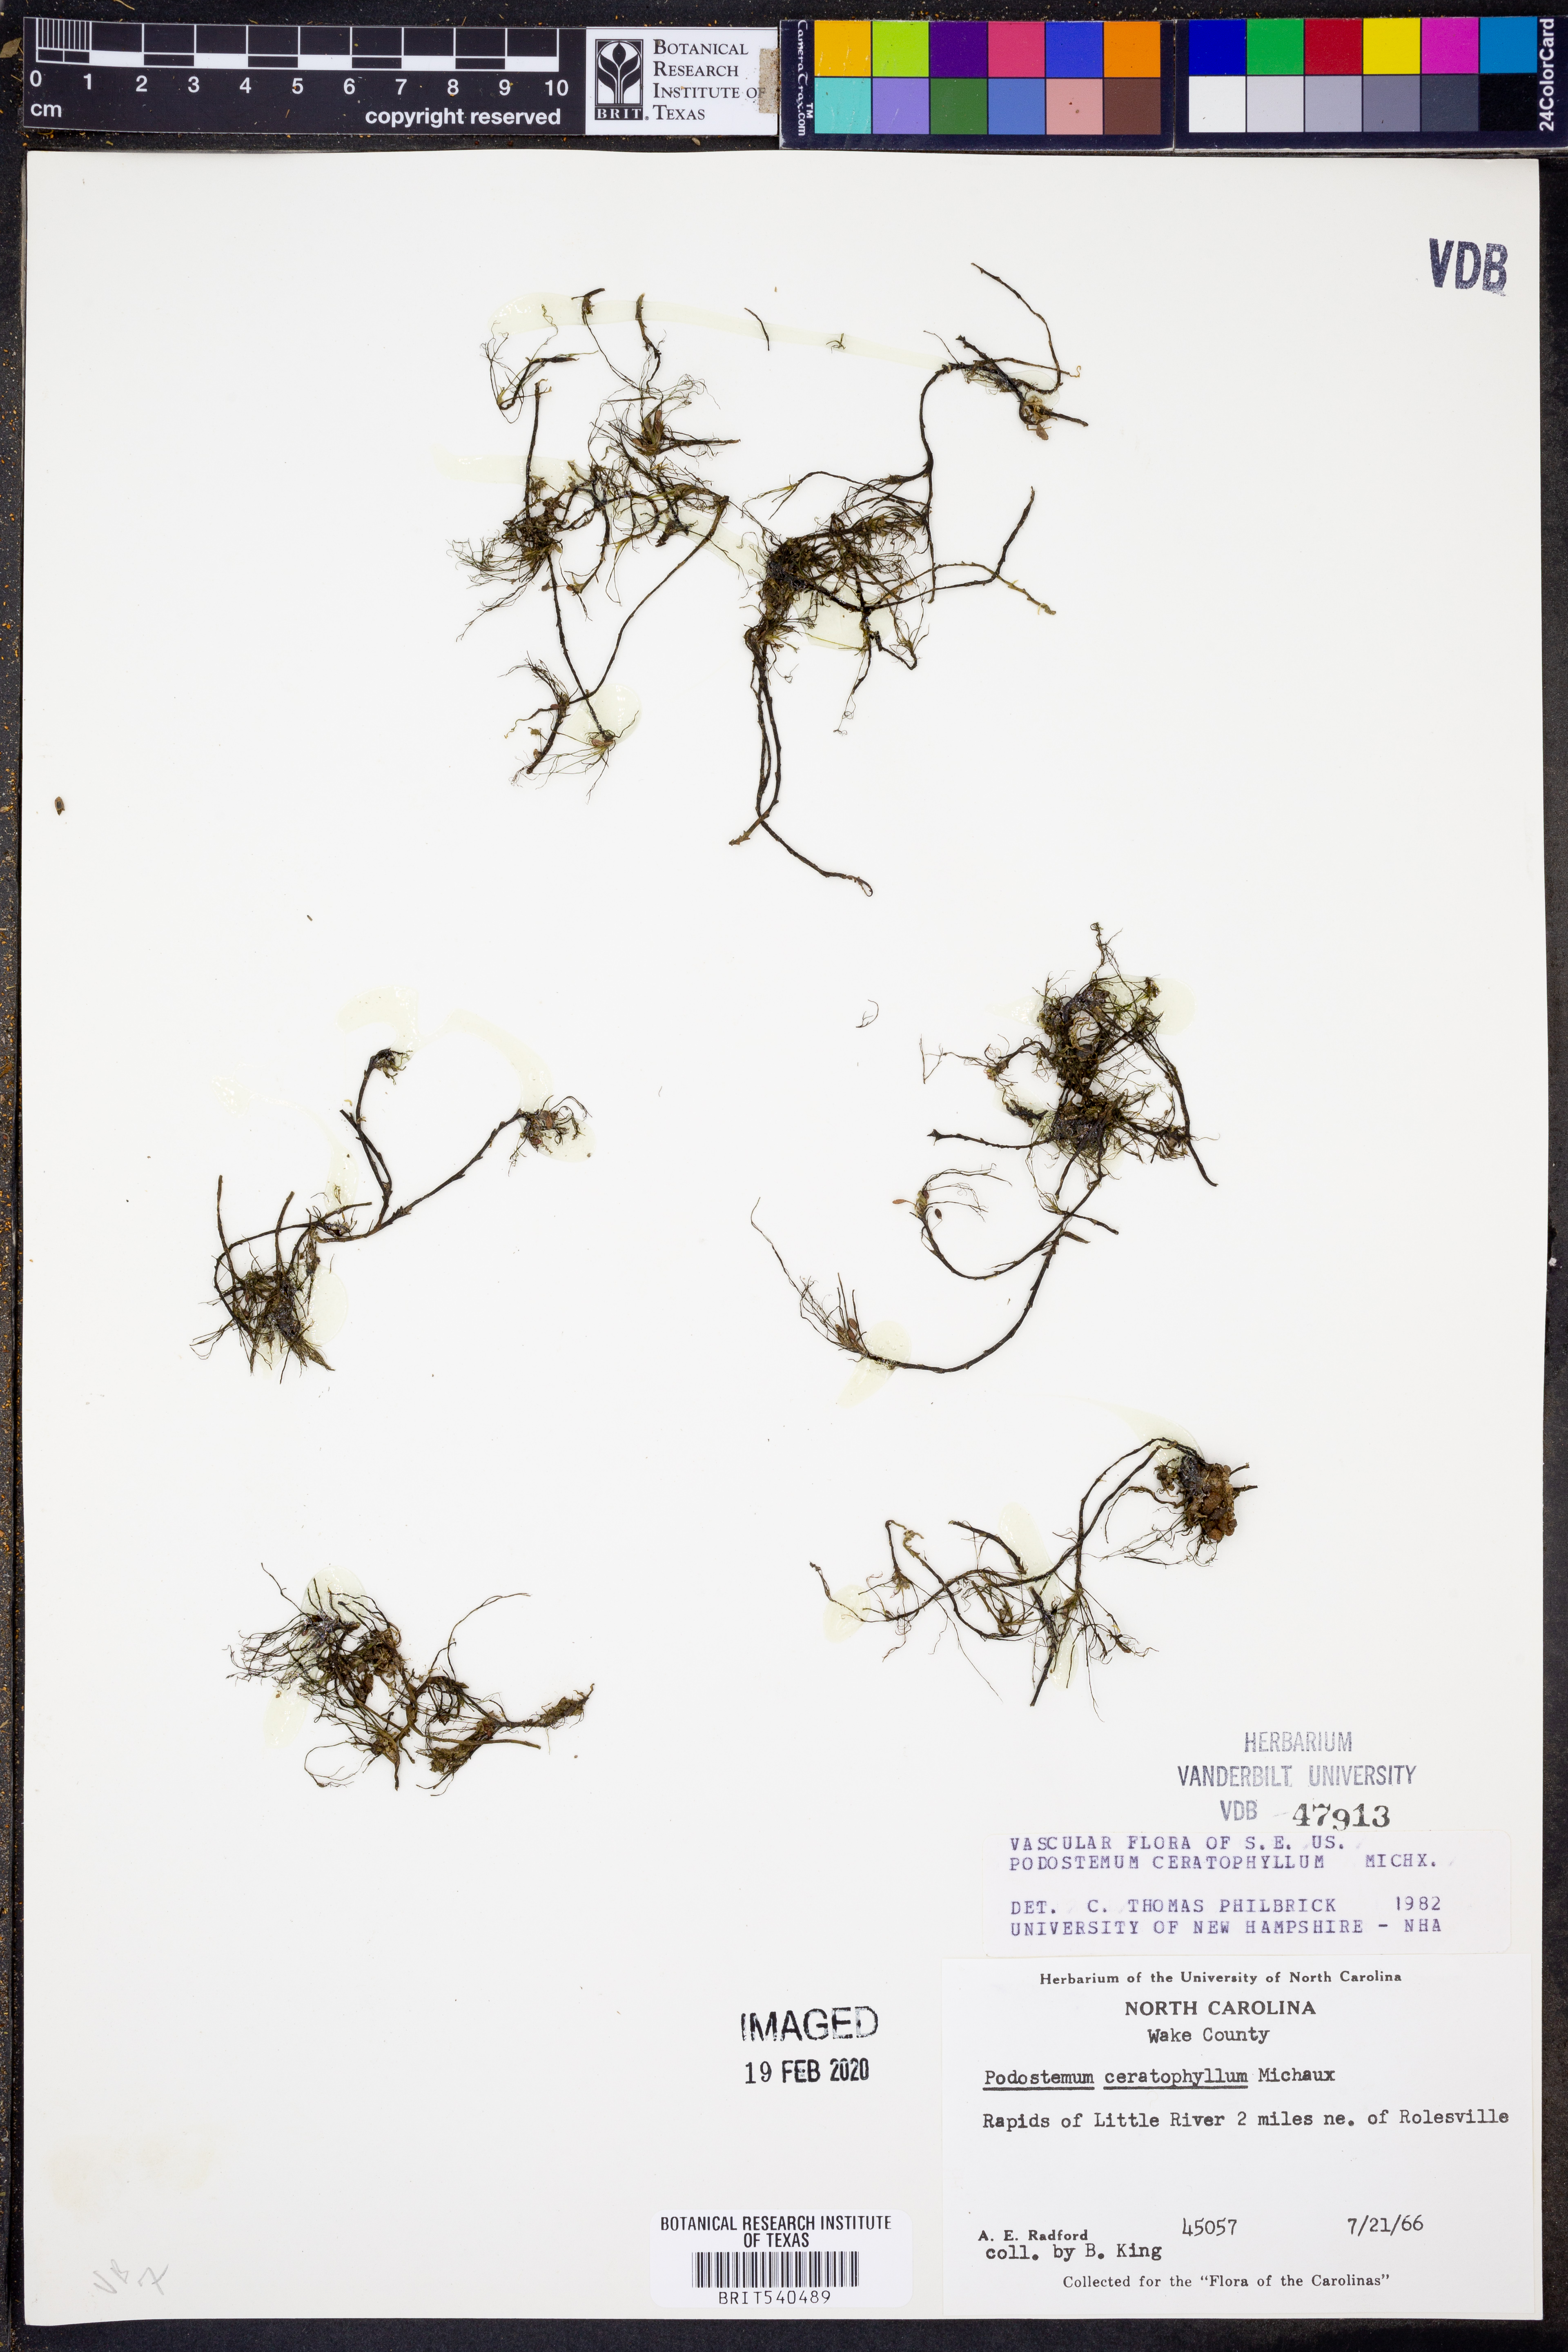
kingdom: Plantae
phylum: Tracheophyta
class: Magnoliopsida
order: Malpighiales
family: Podostemaceae
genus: Podostemum
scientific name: Podostemum ceratophyllum
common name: Horn-leaved riverweed
